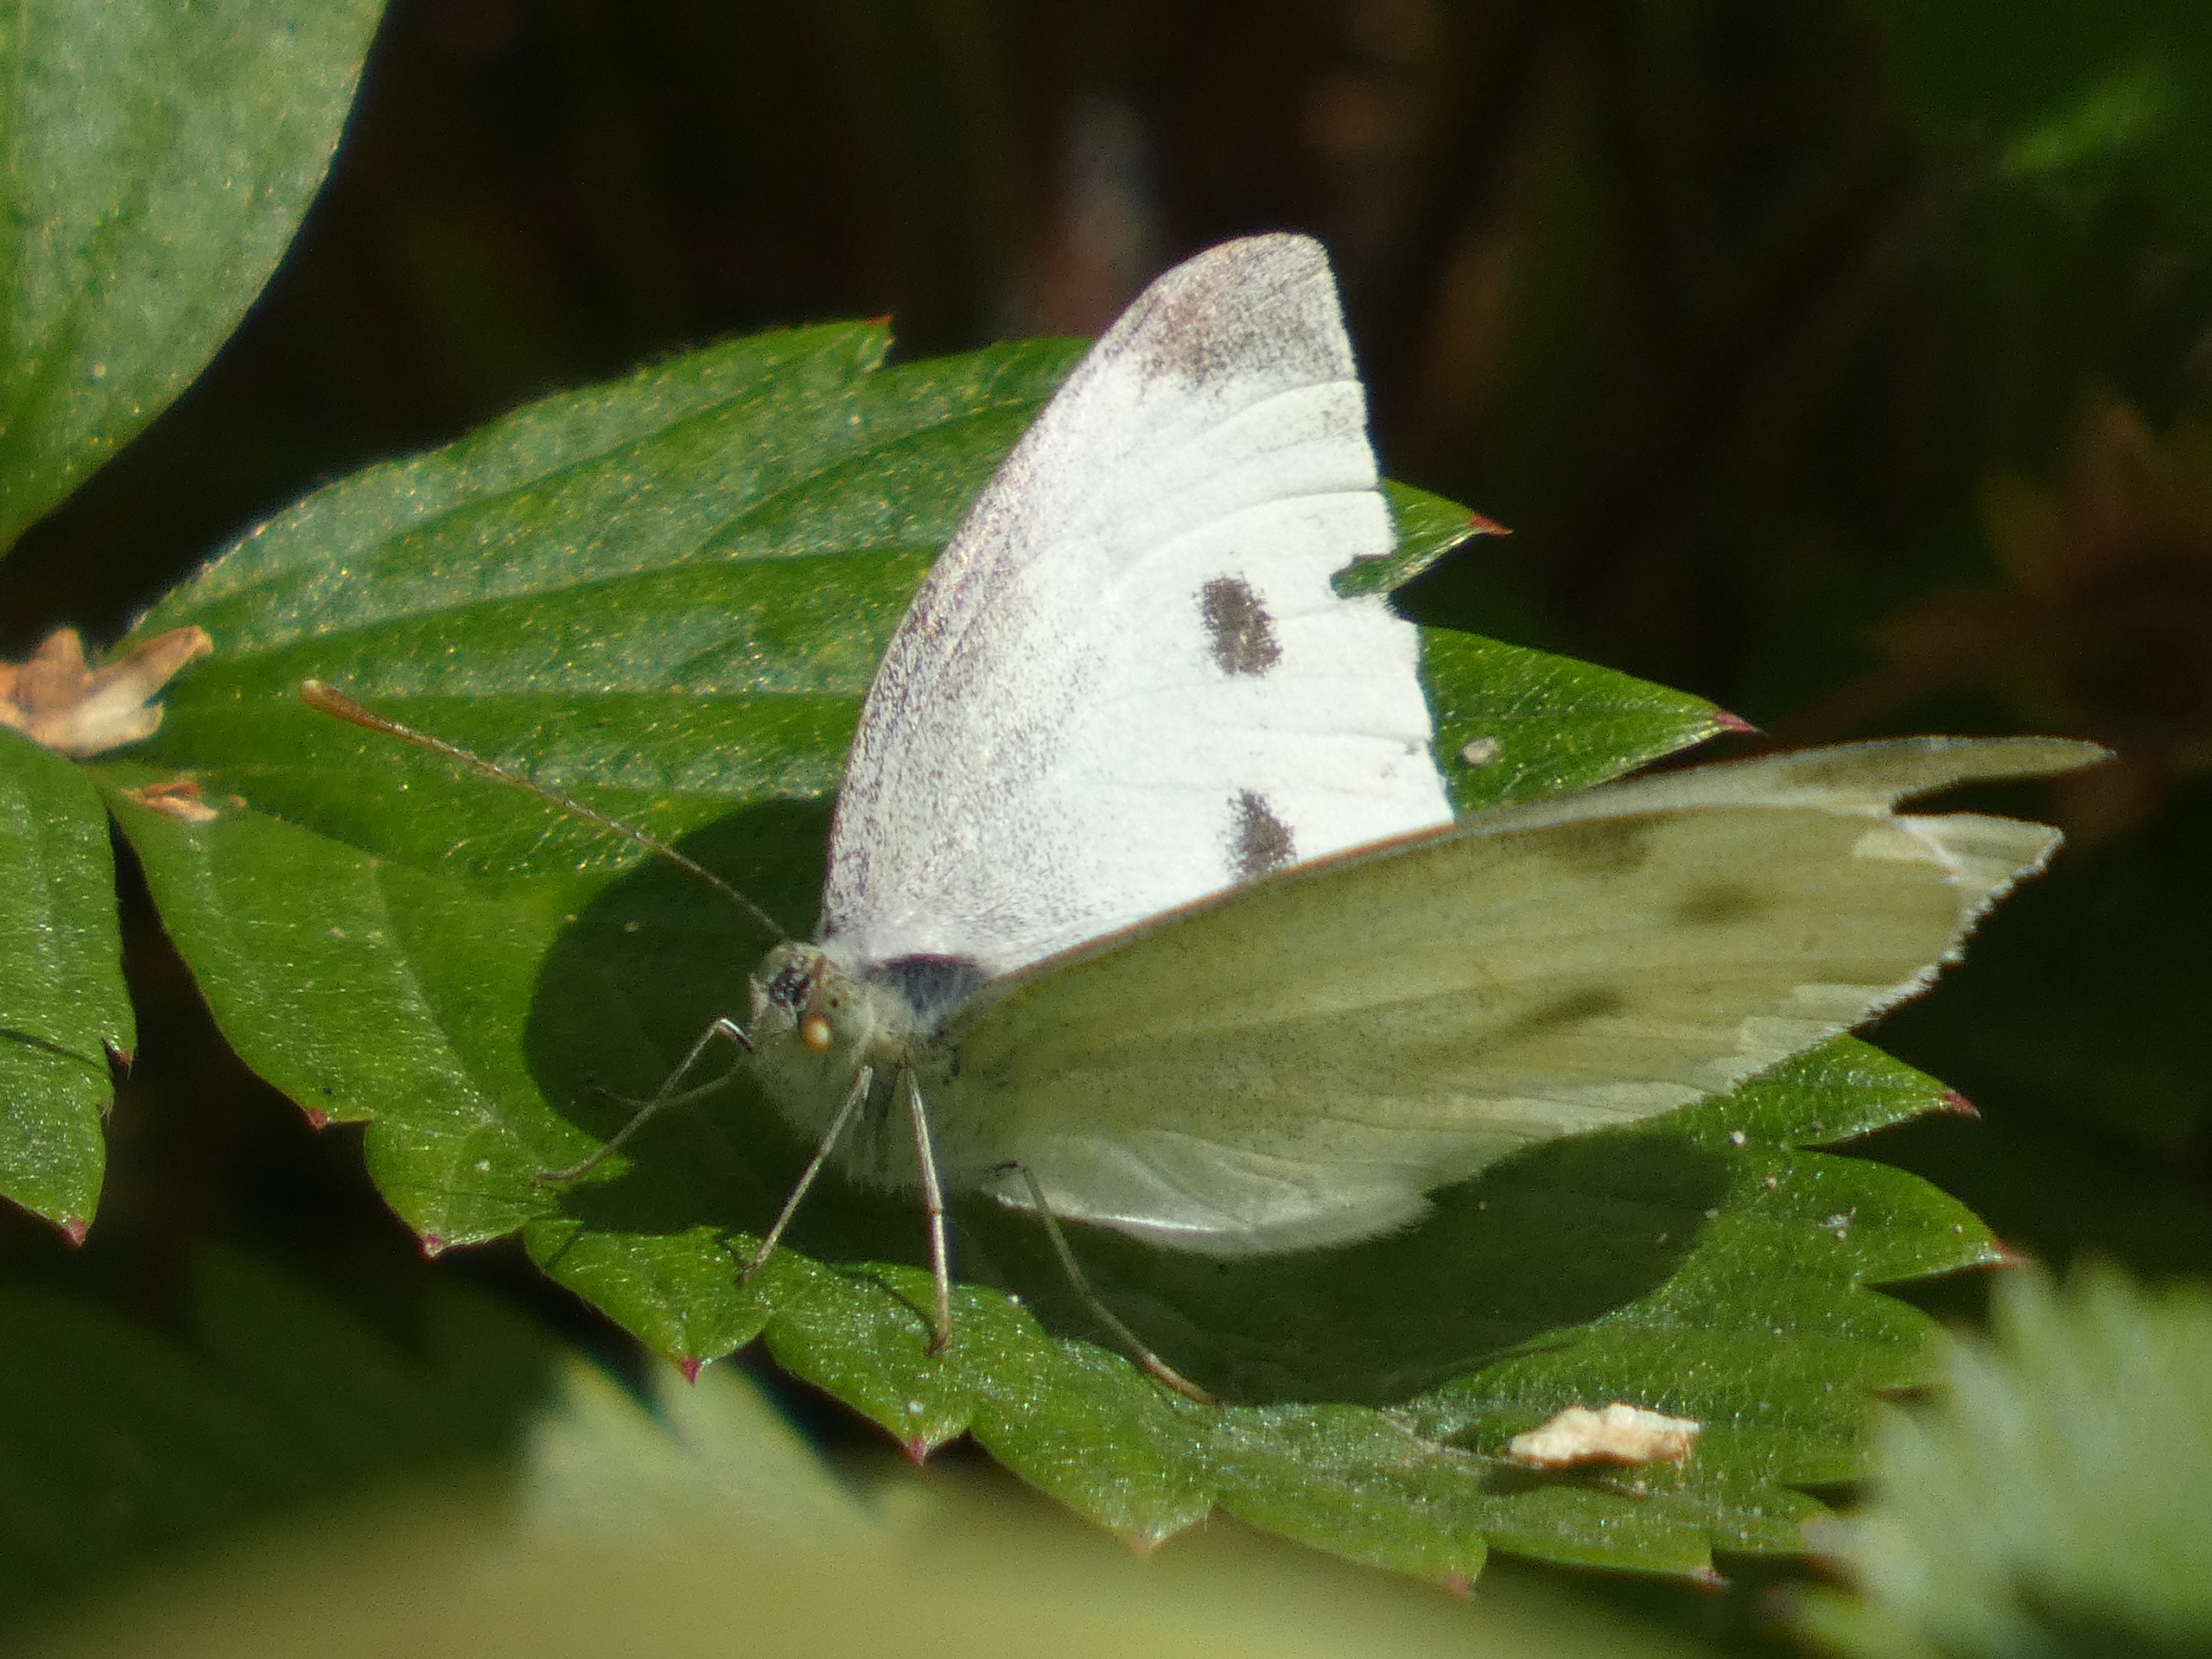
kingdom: Animalia
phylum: Arthropoda
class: Insecta
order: Lepidoptera
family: Pieridae
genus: Pieris
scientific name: Pieris rapae
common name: Lille kålsommerfugl
